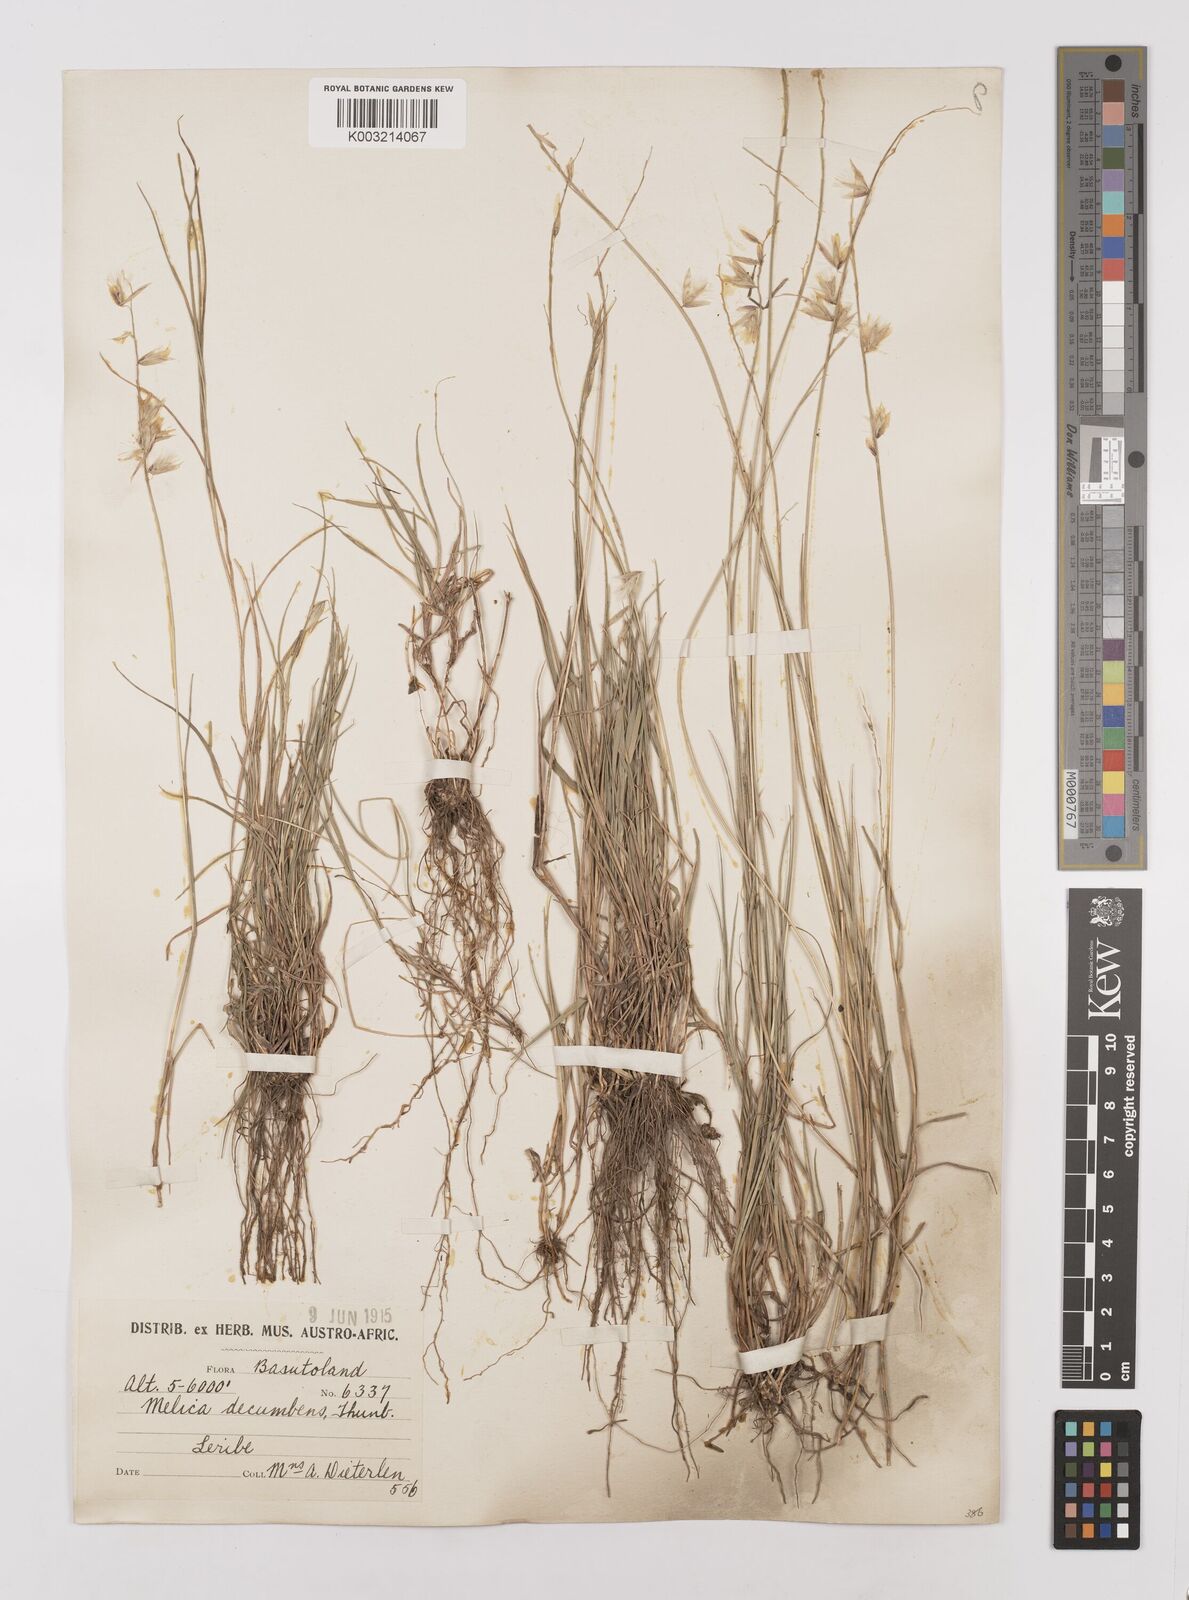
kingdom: Plantae
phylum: Tracheophyta
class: Liliopsida
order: Poales
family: Poaceae
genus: Melica
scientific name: Melica dendroides
